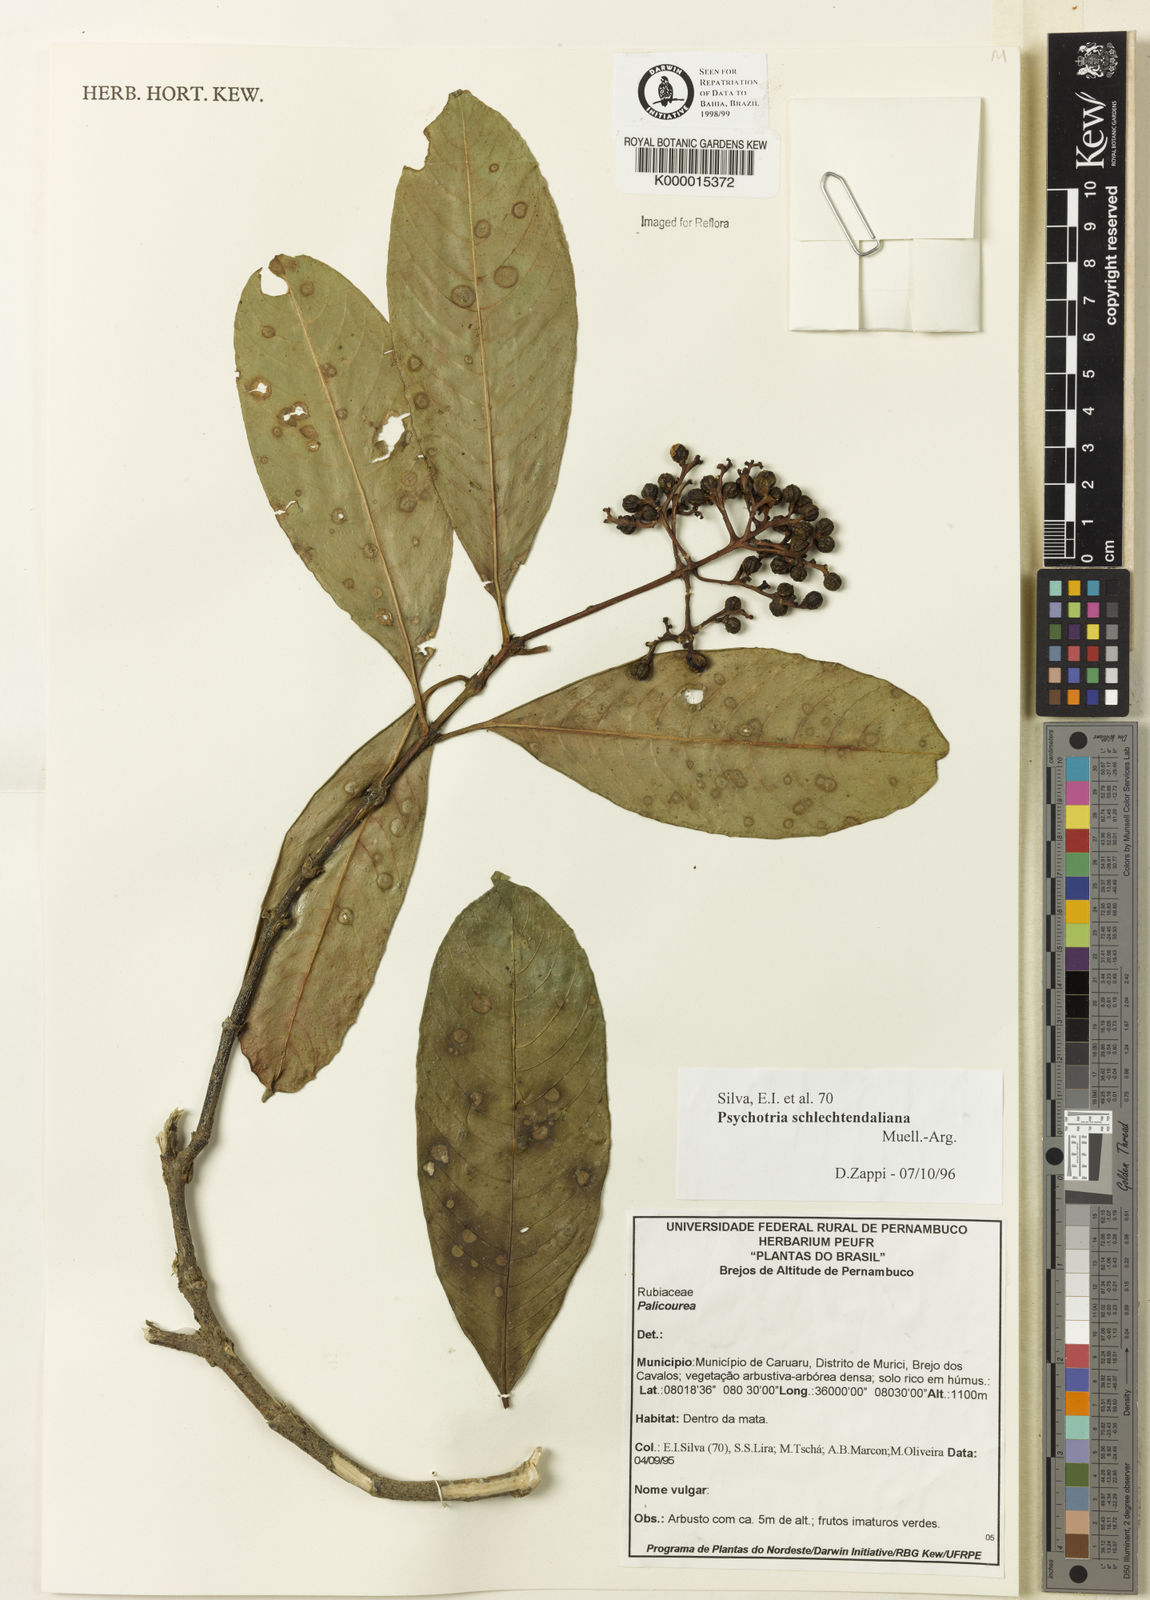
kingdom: Plantae
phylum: Tracheophyta
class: Magnoliopsida
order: Gentianales
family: Rubiaceae
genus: Palicourea
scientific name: Palicourea divaricata
